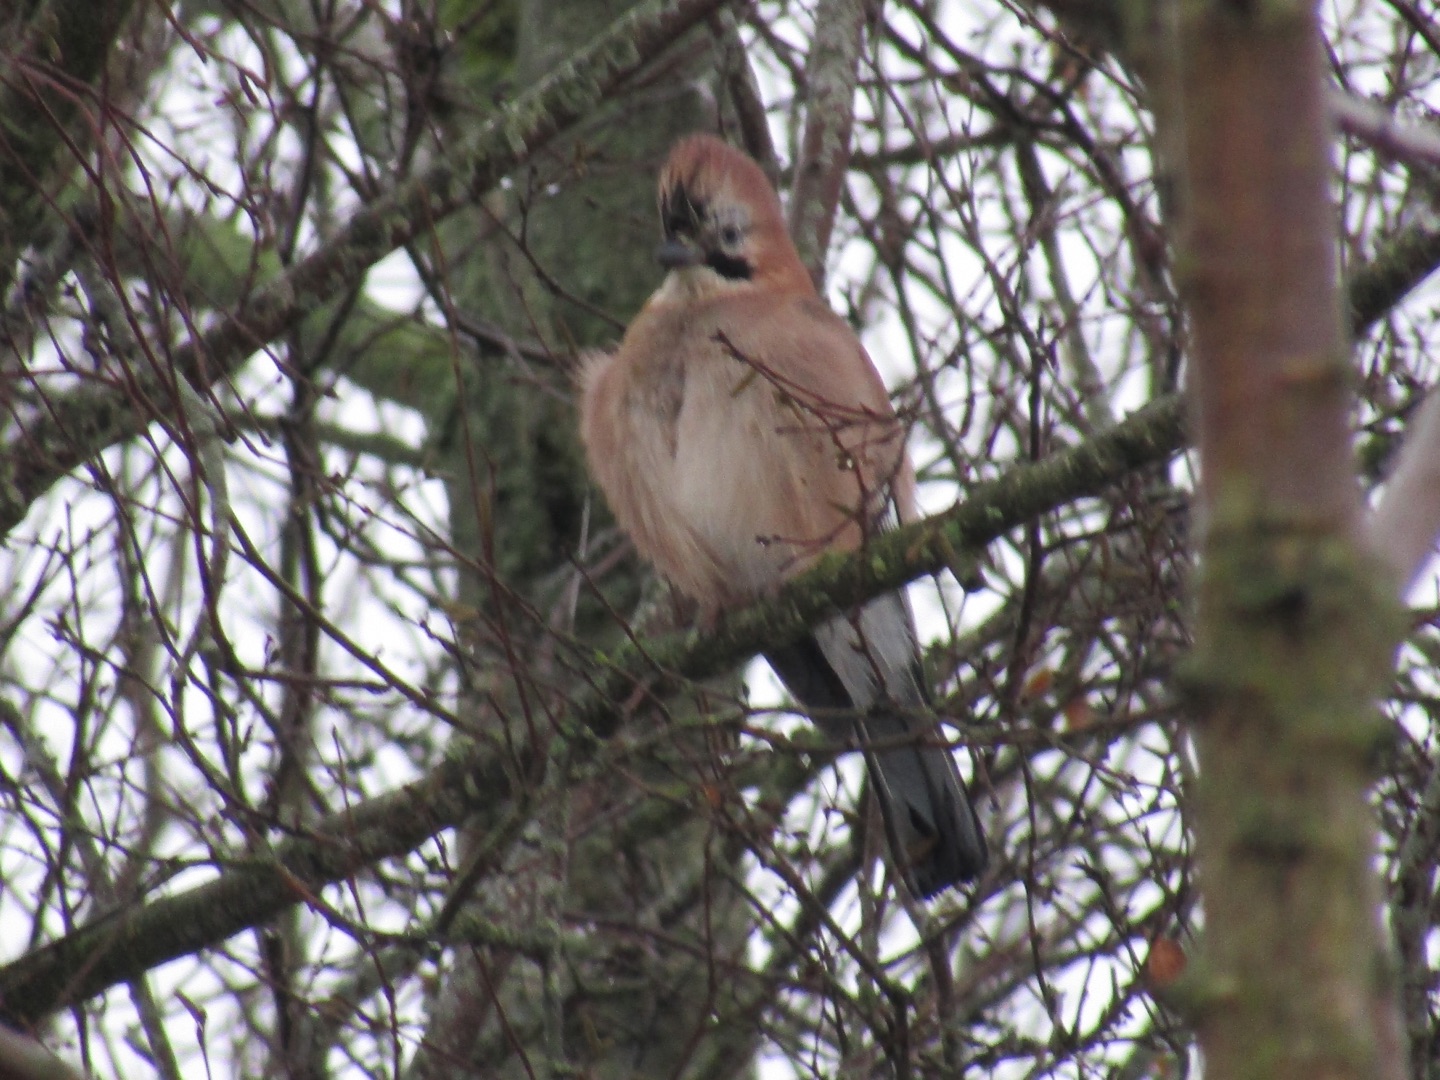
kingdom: Animalia
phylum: Chordata
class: Aves
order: Passeriformes
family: Corvidae
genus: Garrulus
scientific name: Garrulus glandarius
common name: Skovskade
